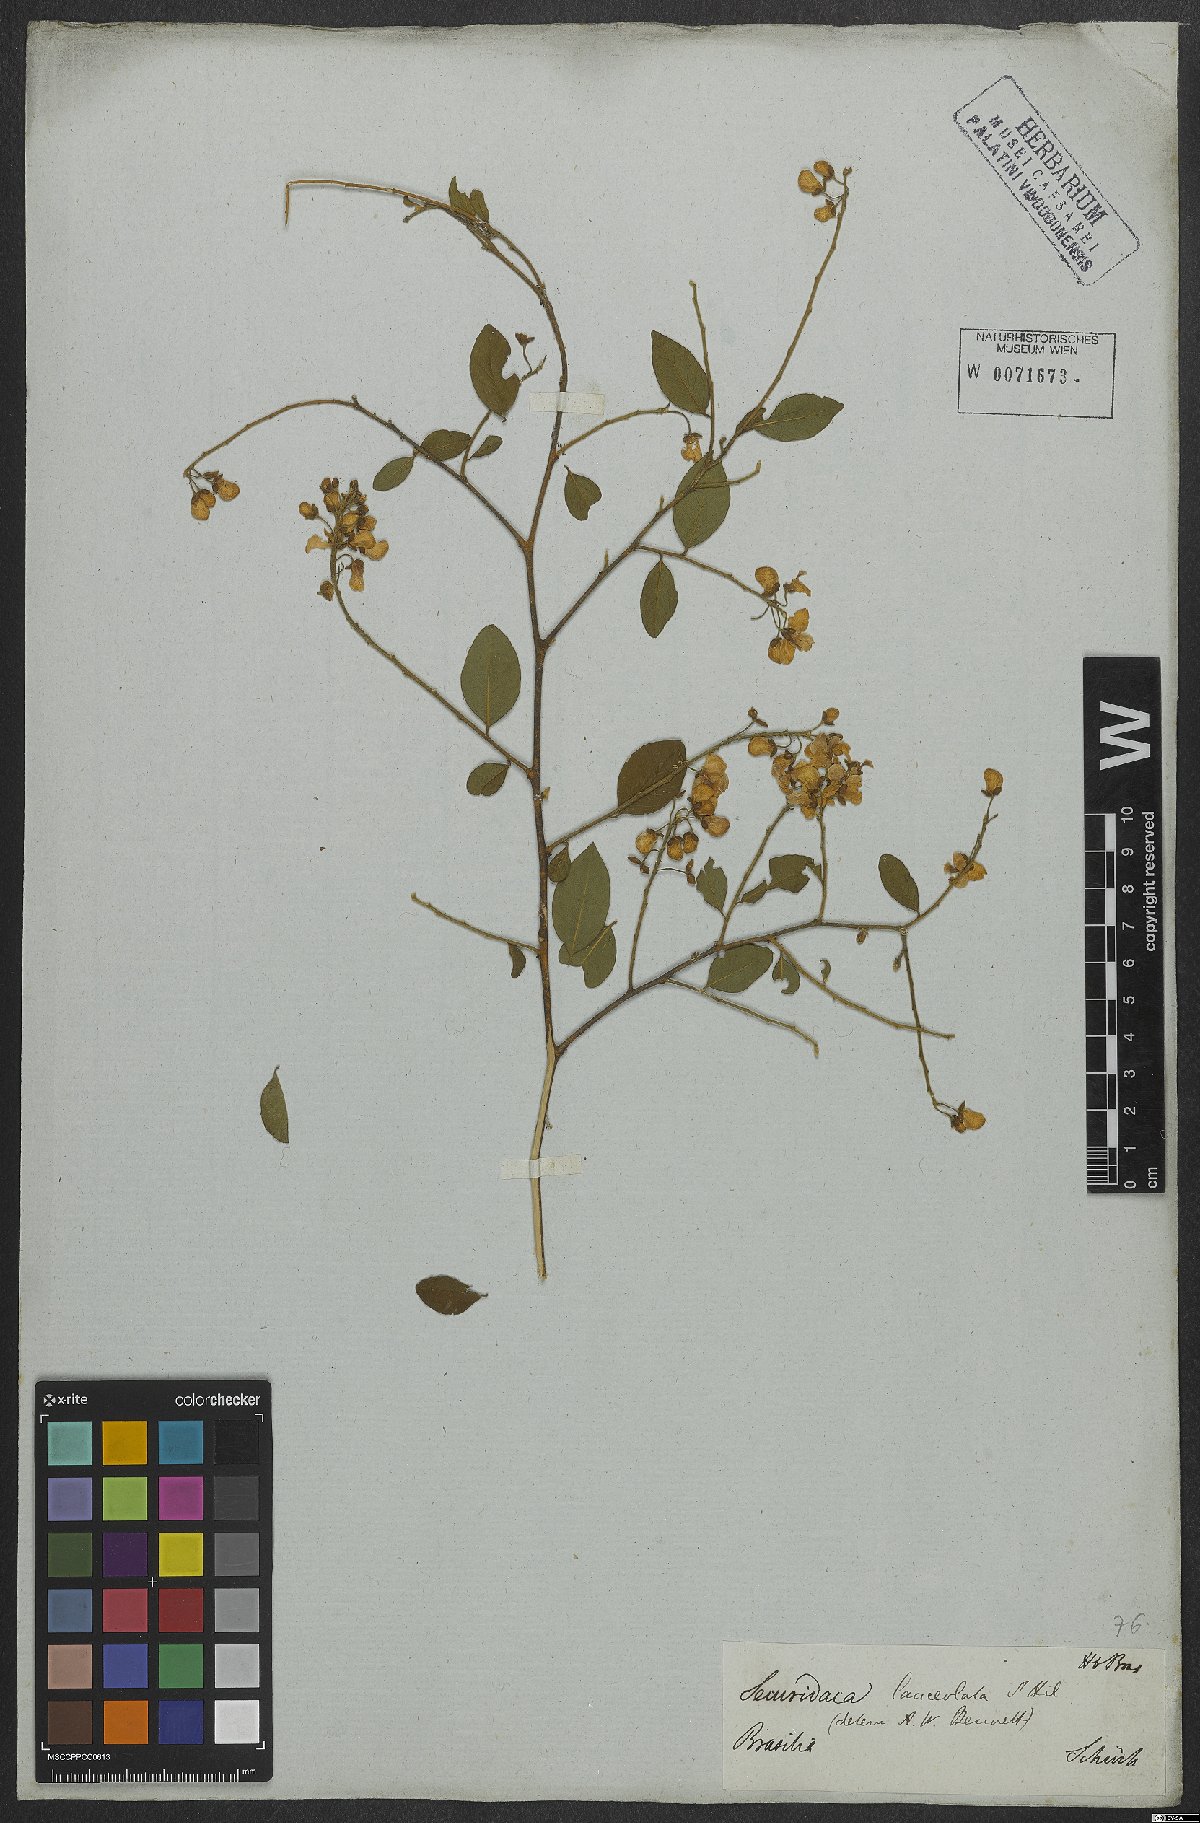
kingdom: Plantae
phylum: Tracheophyta
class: Magnoliopsida
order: Fabales
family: Polygalaceae
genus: Securidaca
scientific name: Securidaca lanceolata
